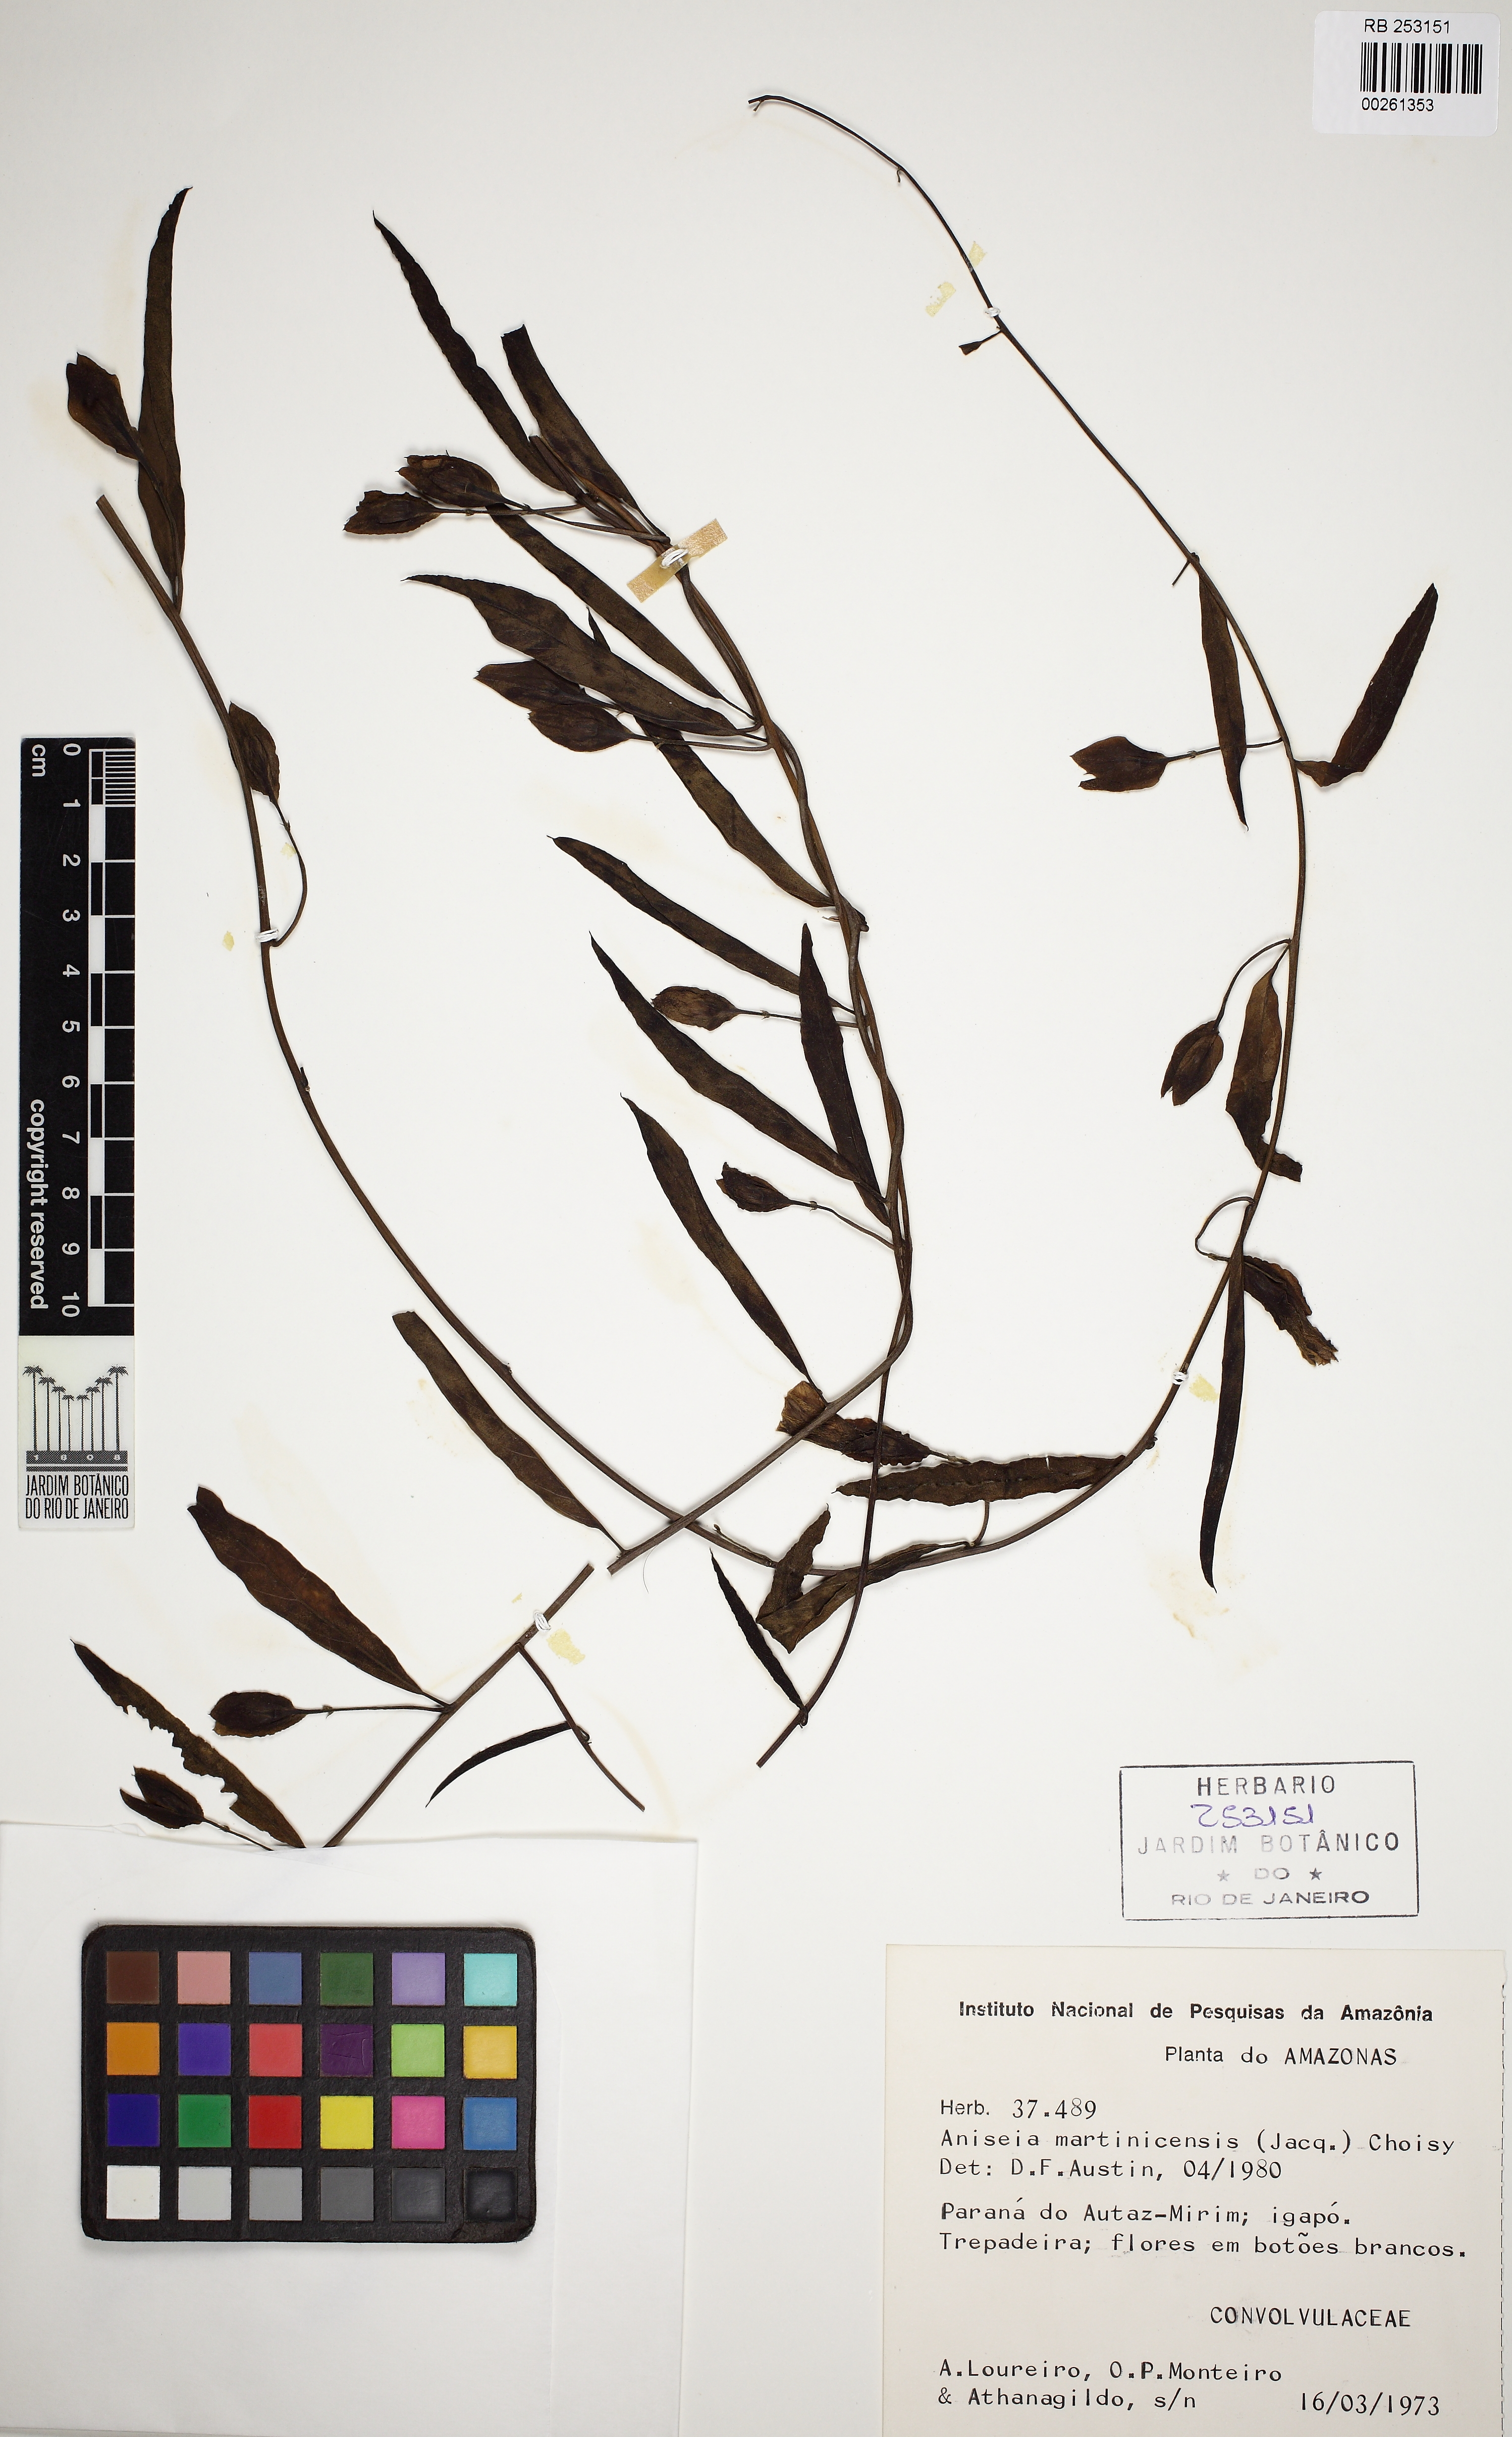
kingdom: Plantae
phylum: Tracheophyta
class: Magnoliopsida
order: Solanales
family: Convolvulaceae
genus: Aniseia
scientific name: Aniseia martinicensis
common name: Kulayadambu
